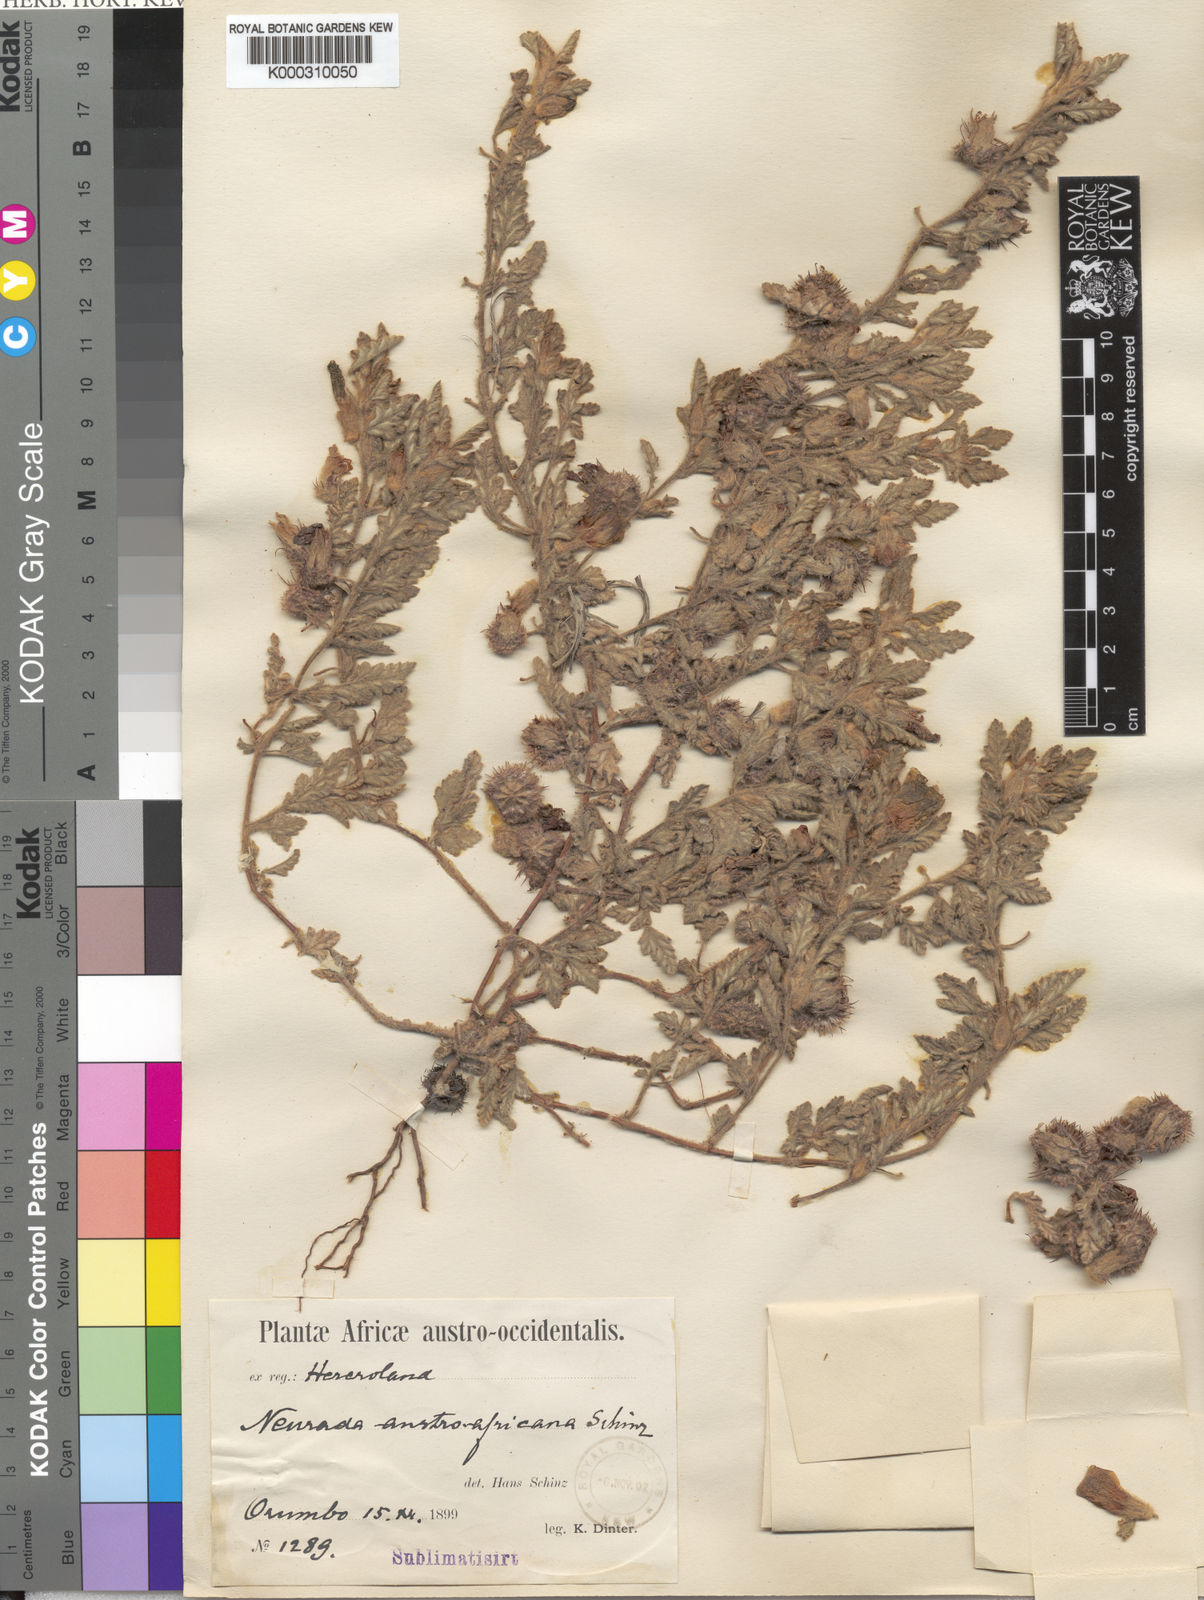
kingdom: Plantae
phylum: Tracheophyta
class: Magnoliopsida
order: Malvales
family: Neuradaceae
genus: Neuradopsis
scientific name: Neuradopsis austroafricana
